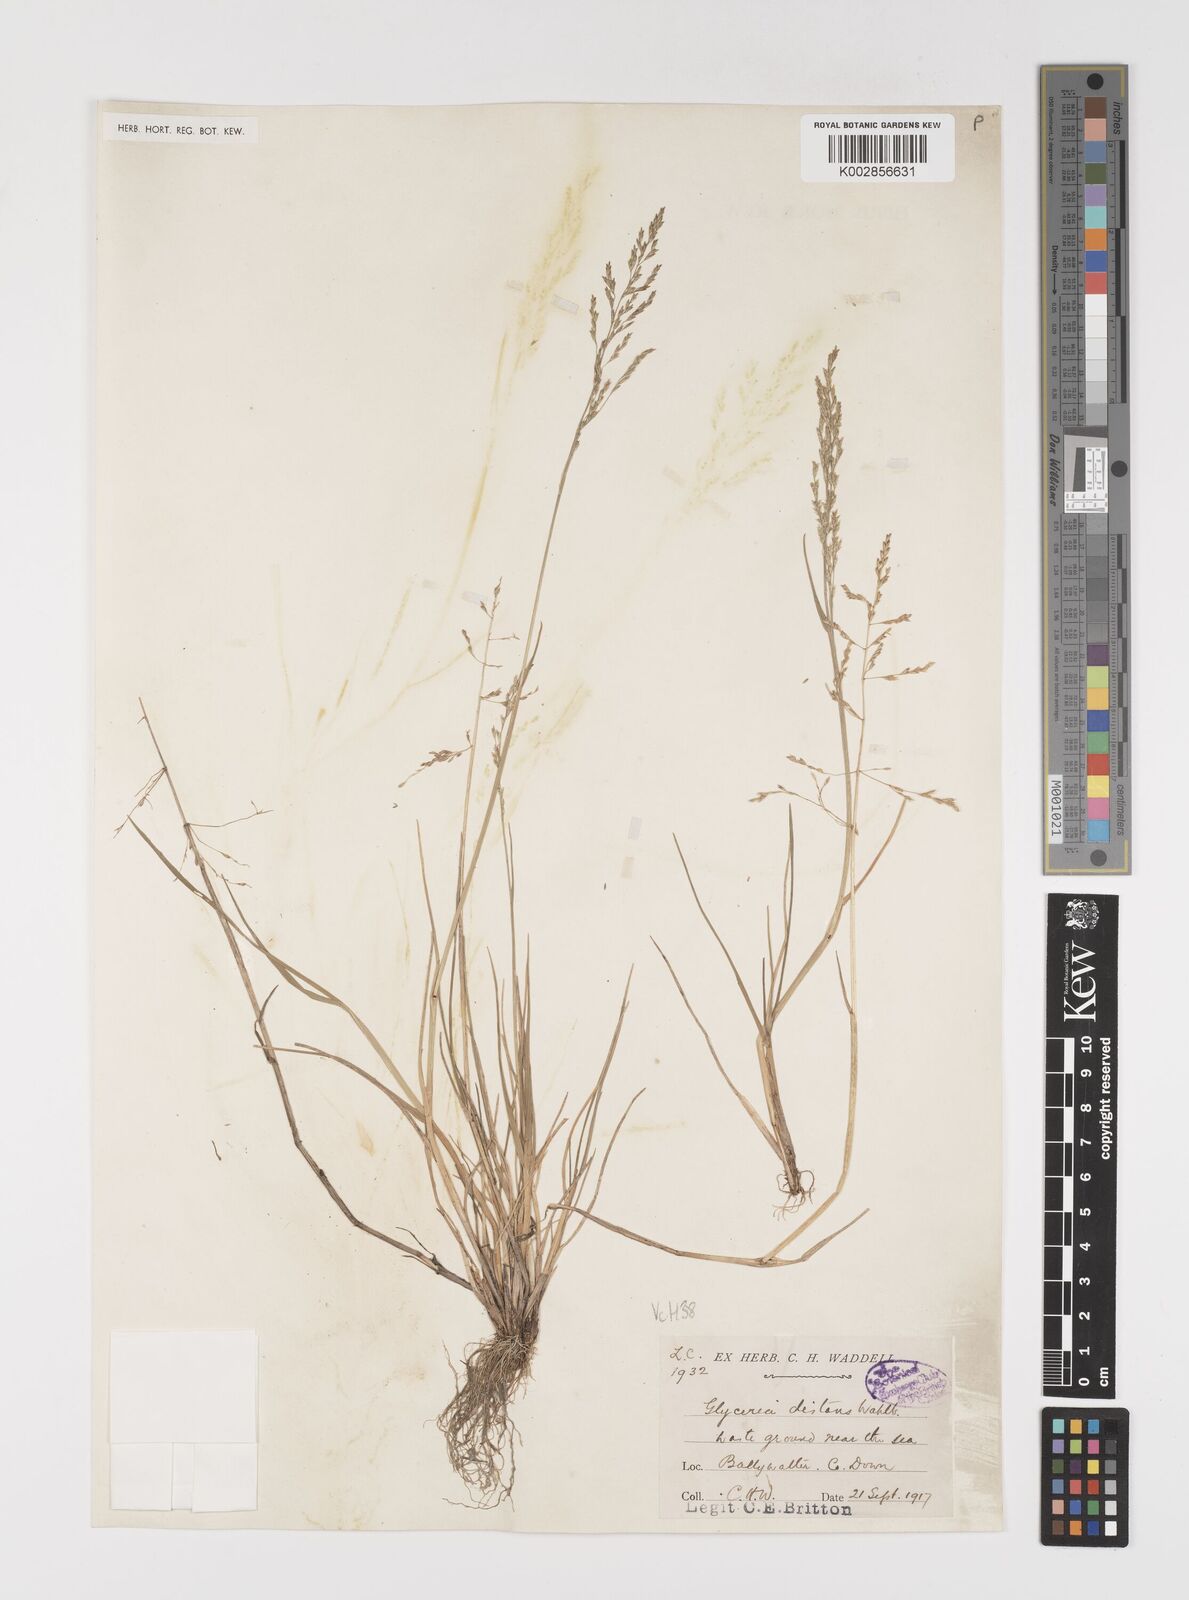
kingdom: Plantae
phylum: Tracheophyta
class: Liliopsida
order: Poales
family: Poaceae
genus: Puccinellia
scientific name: Puccinellia distans
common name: Weeping alkaligrass
